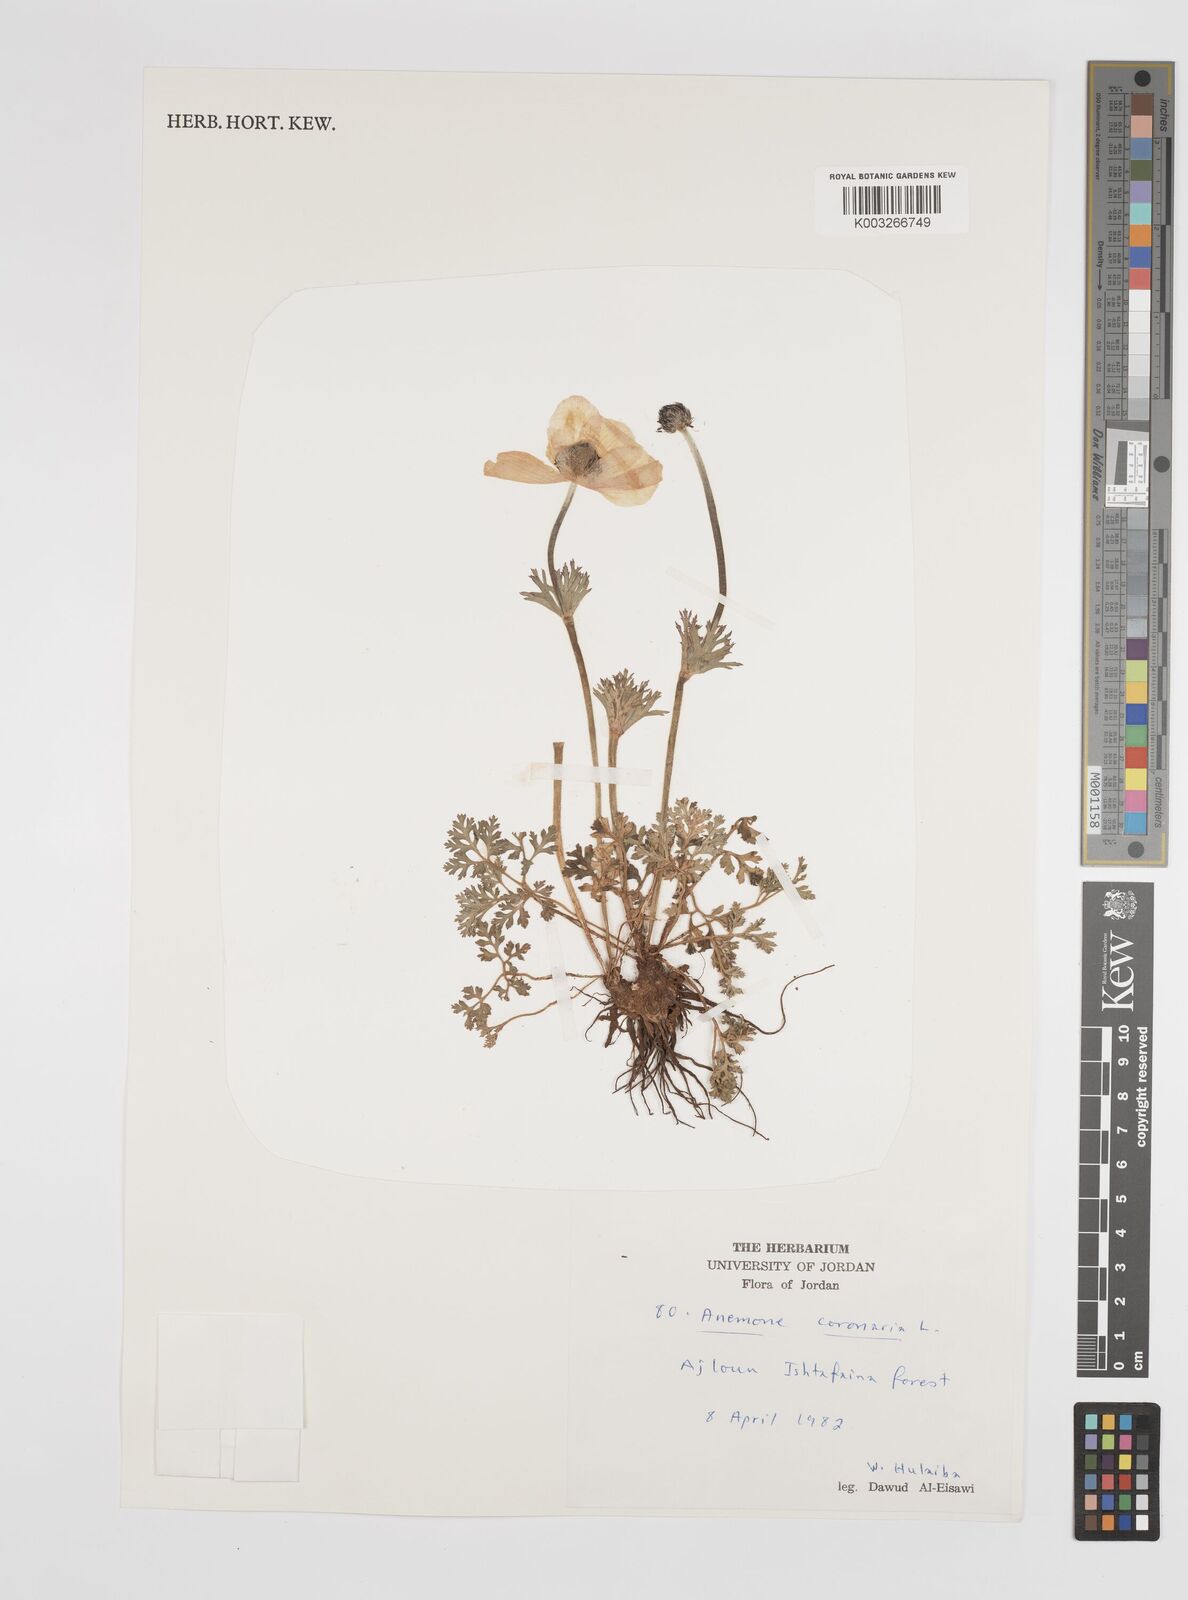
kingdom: Plantae
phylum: Tracheophyta
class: Magnoliopsida
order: Ranunculales
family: Ranunculaceae
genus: Anemone
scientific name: Anemone coronaria
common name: Poppy anemone
